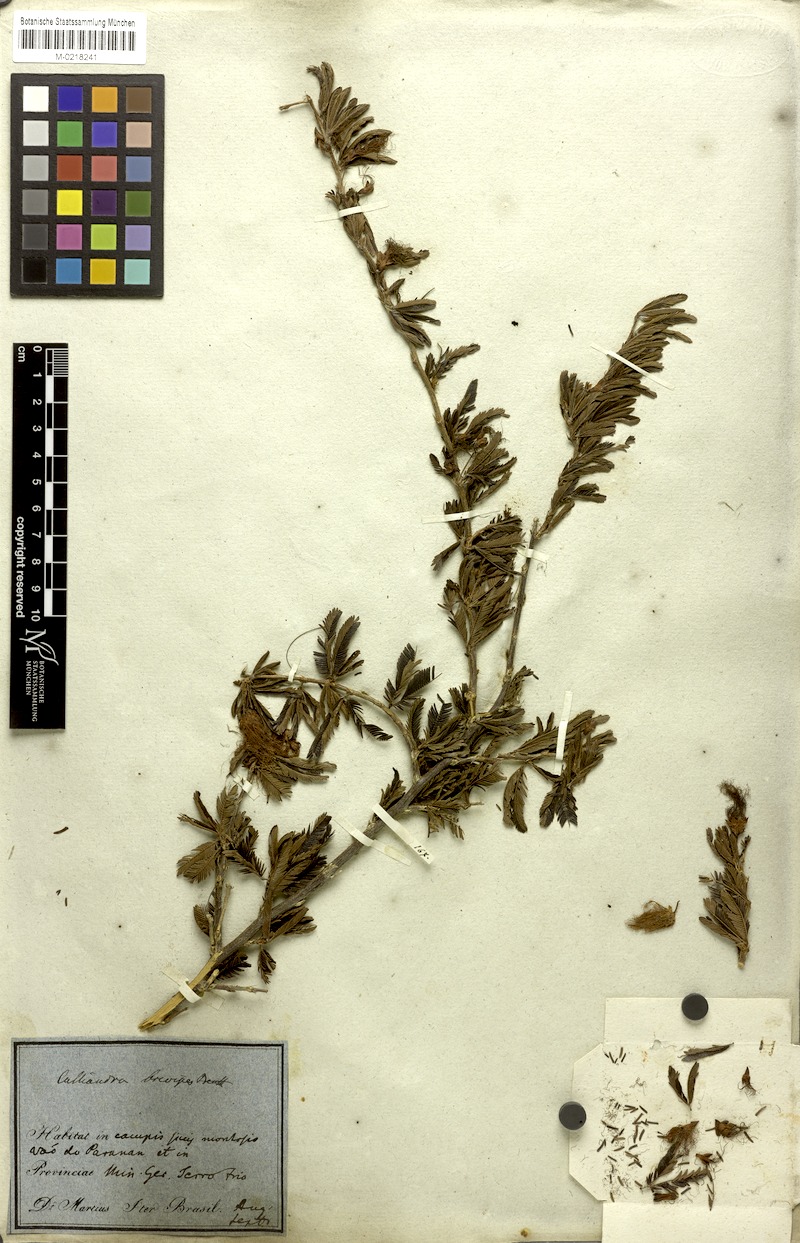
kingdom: Plantae
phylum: Tracheophyta
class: Magnoliopsida
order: Fabales
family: Fabaceae
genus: Calliandra
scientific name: Calliandra selloi
